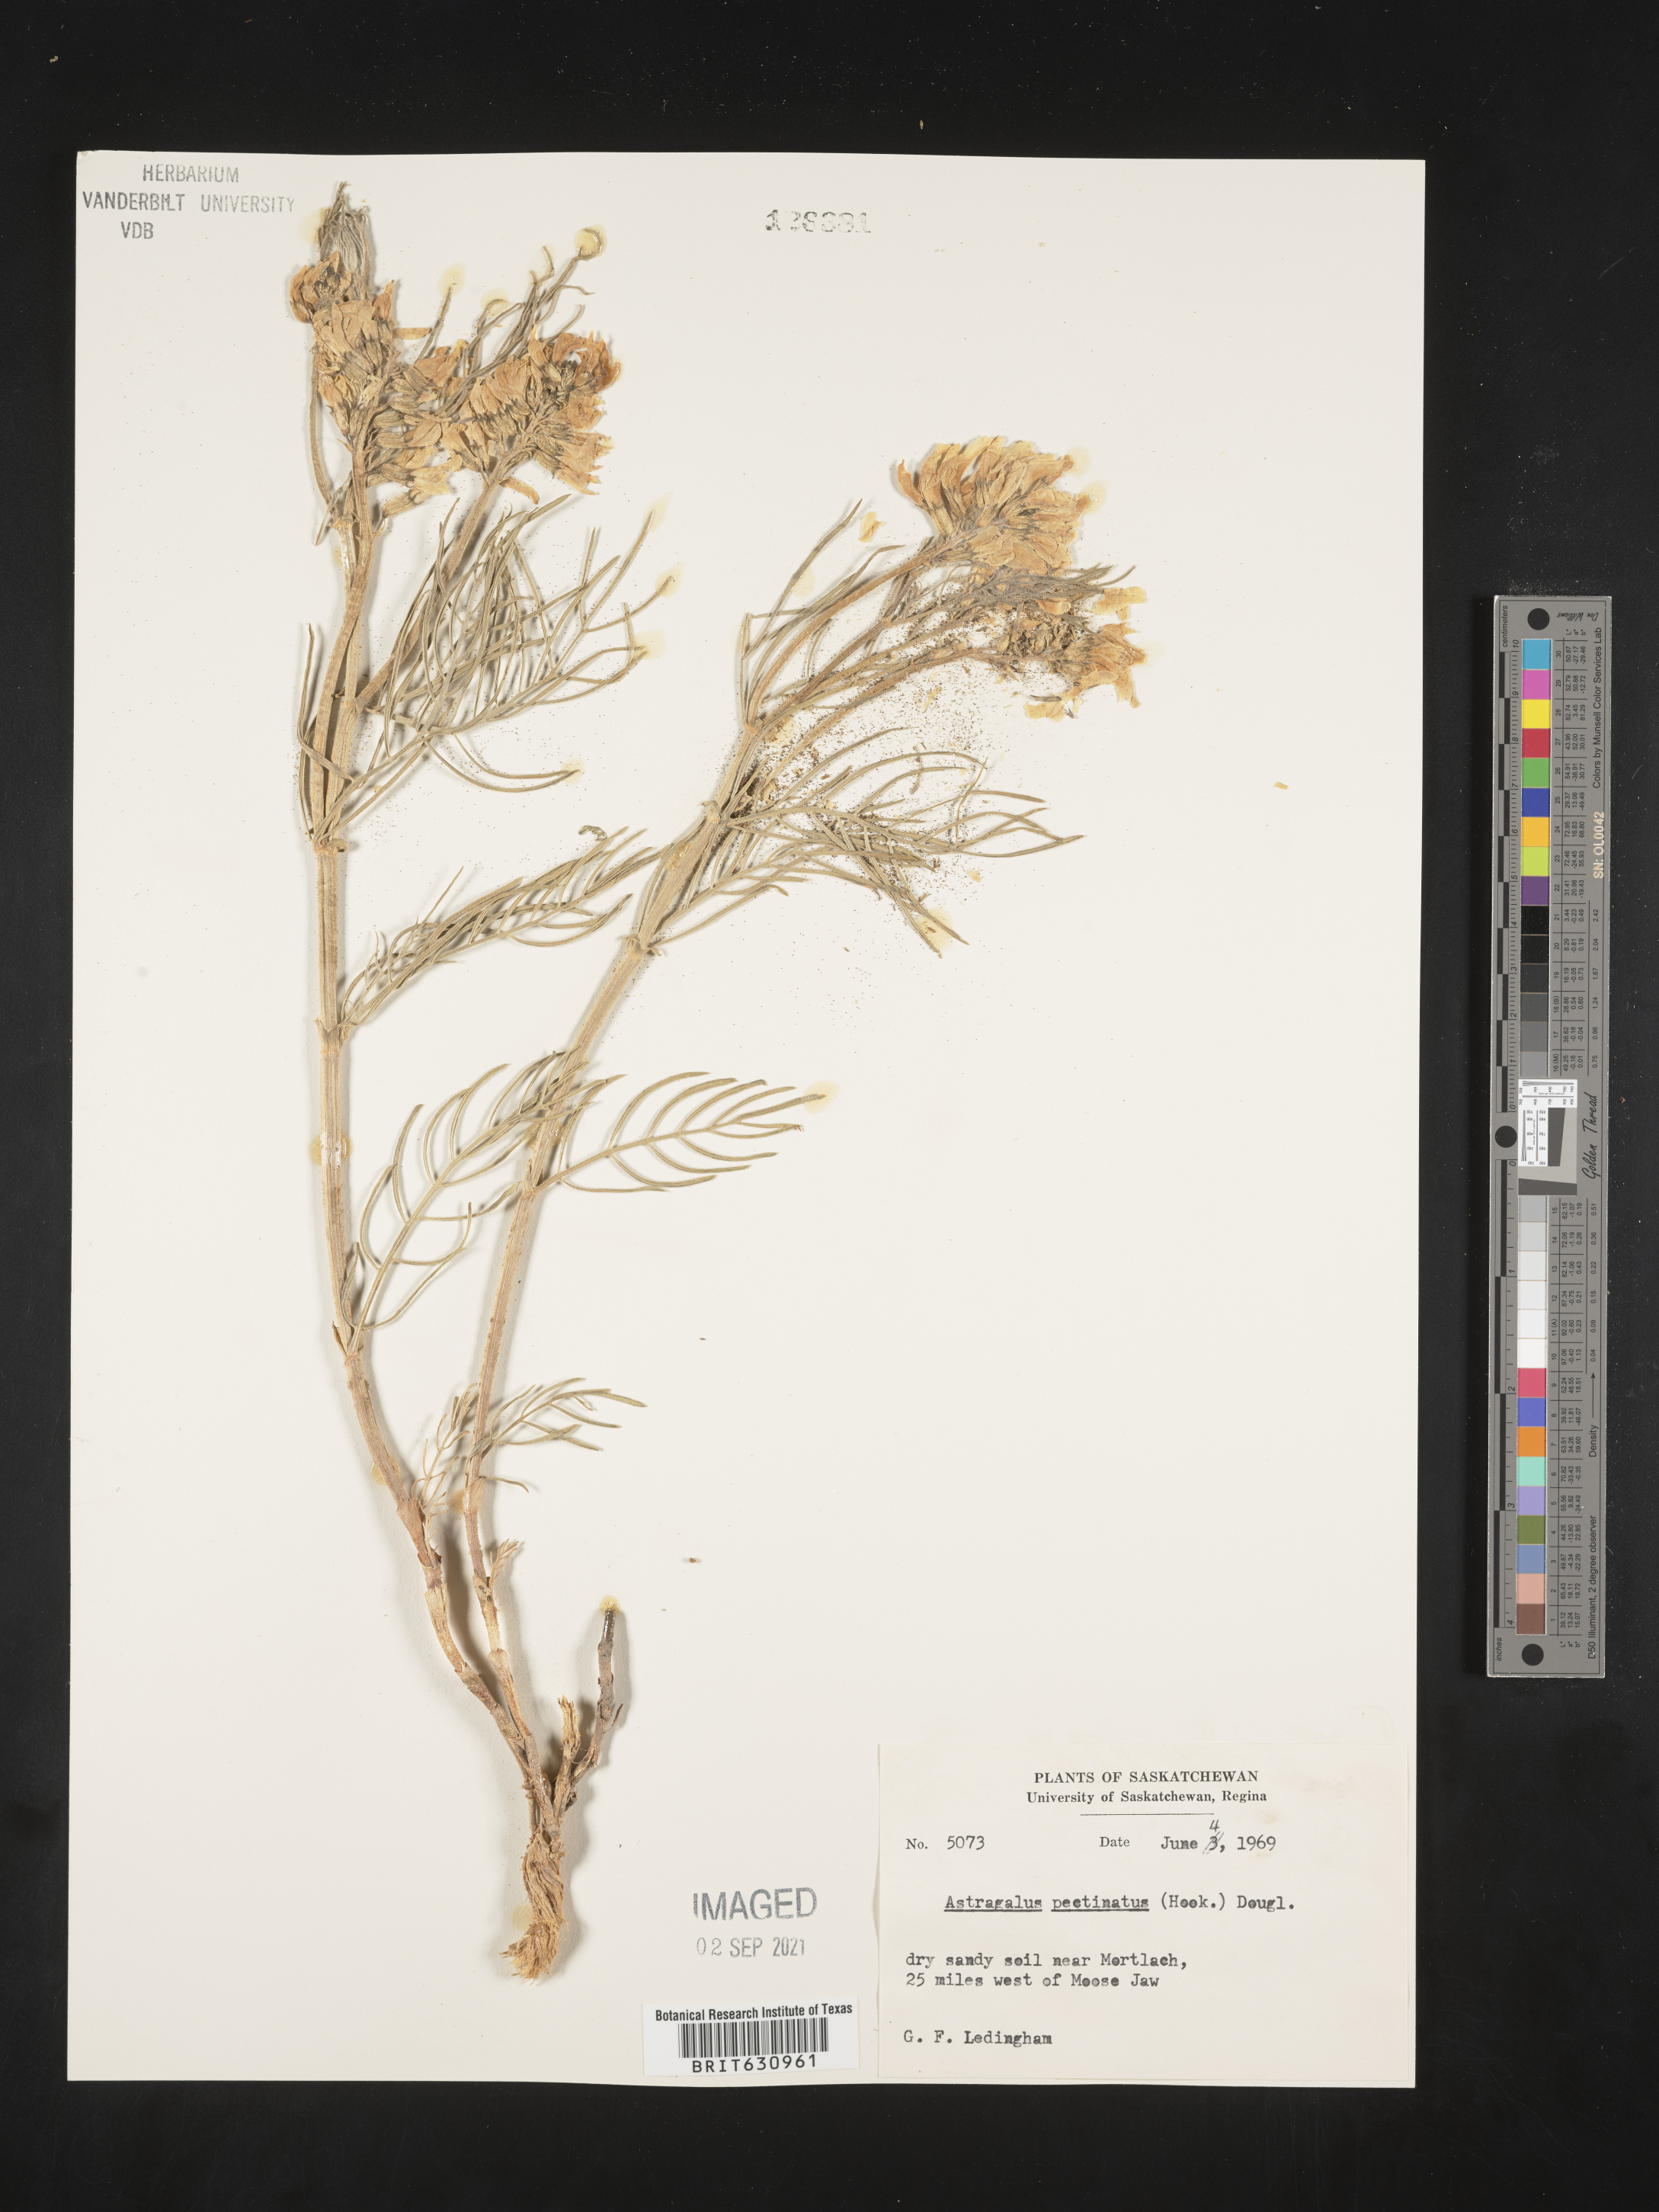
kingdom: Plantae
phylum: Tracheophyta
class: Magnoliopsida
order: Fabales
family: Fabaceae
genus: Astragalus
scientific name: Astragalus
